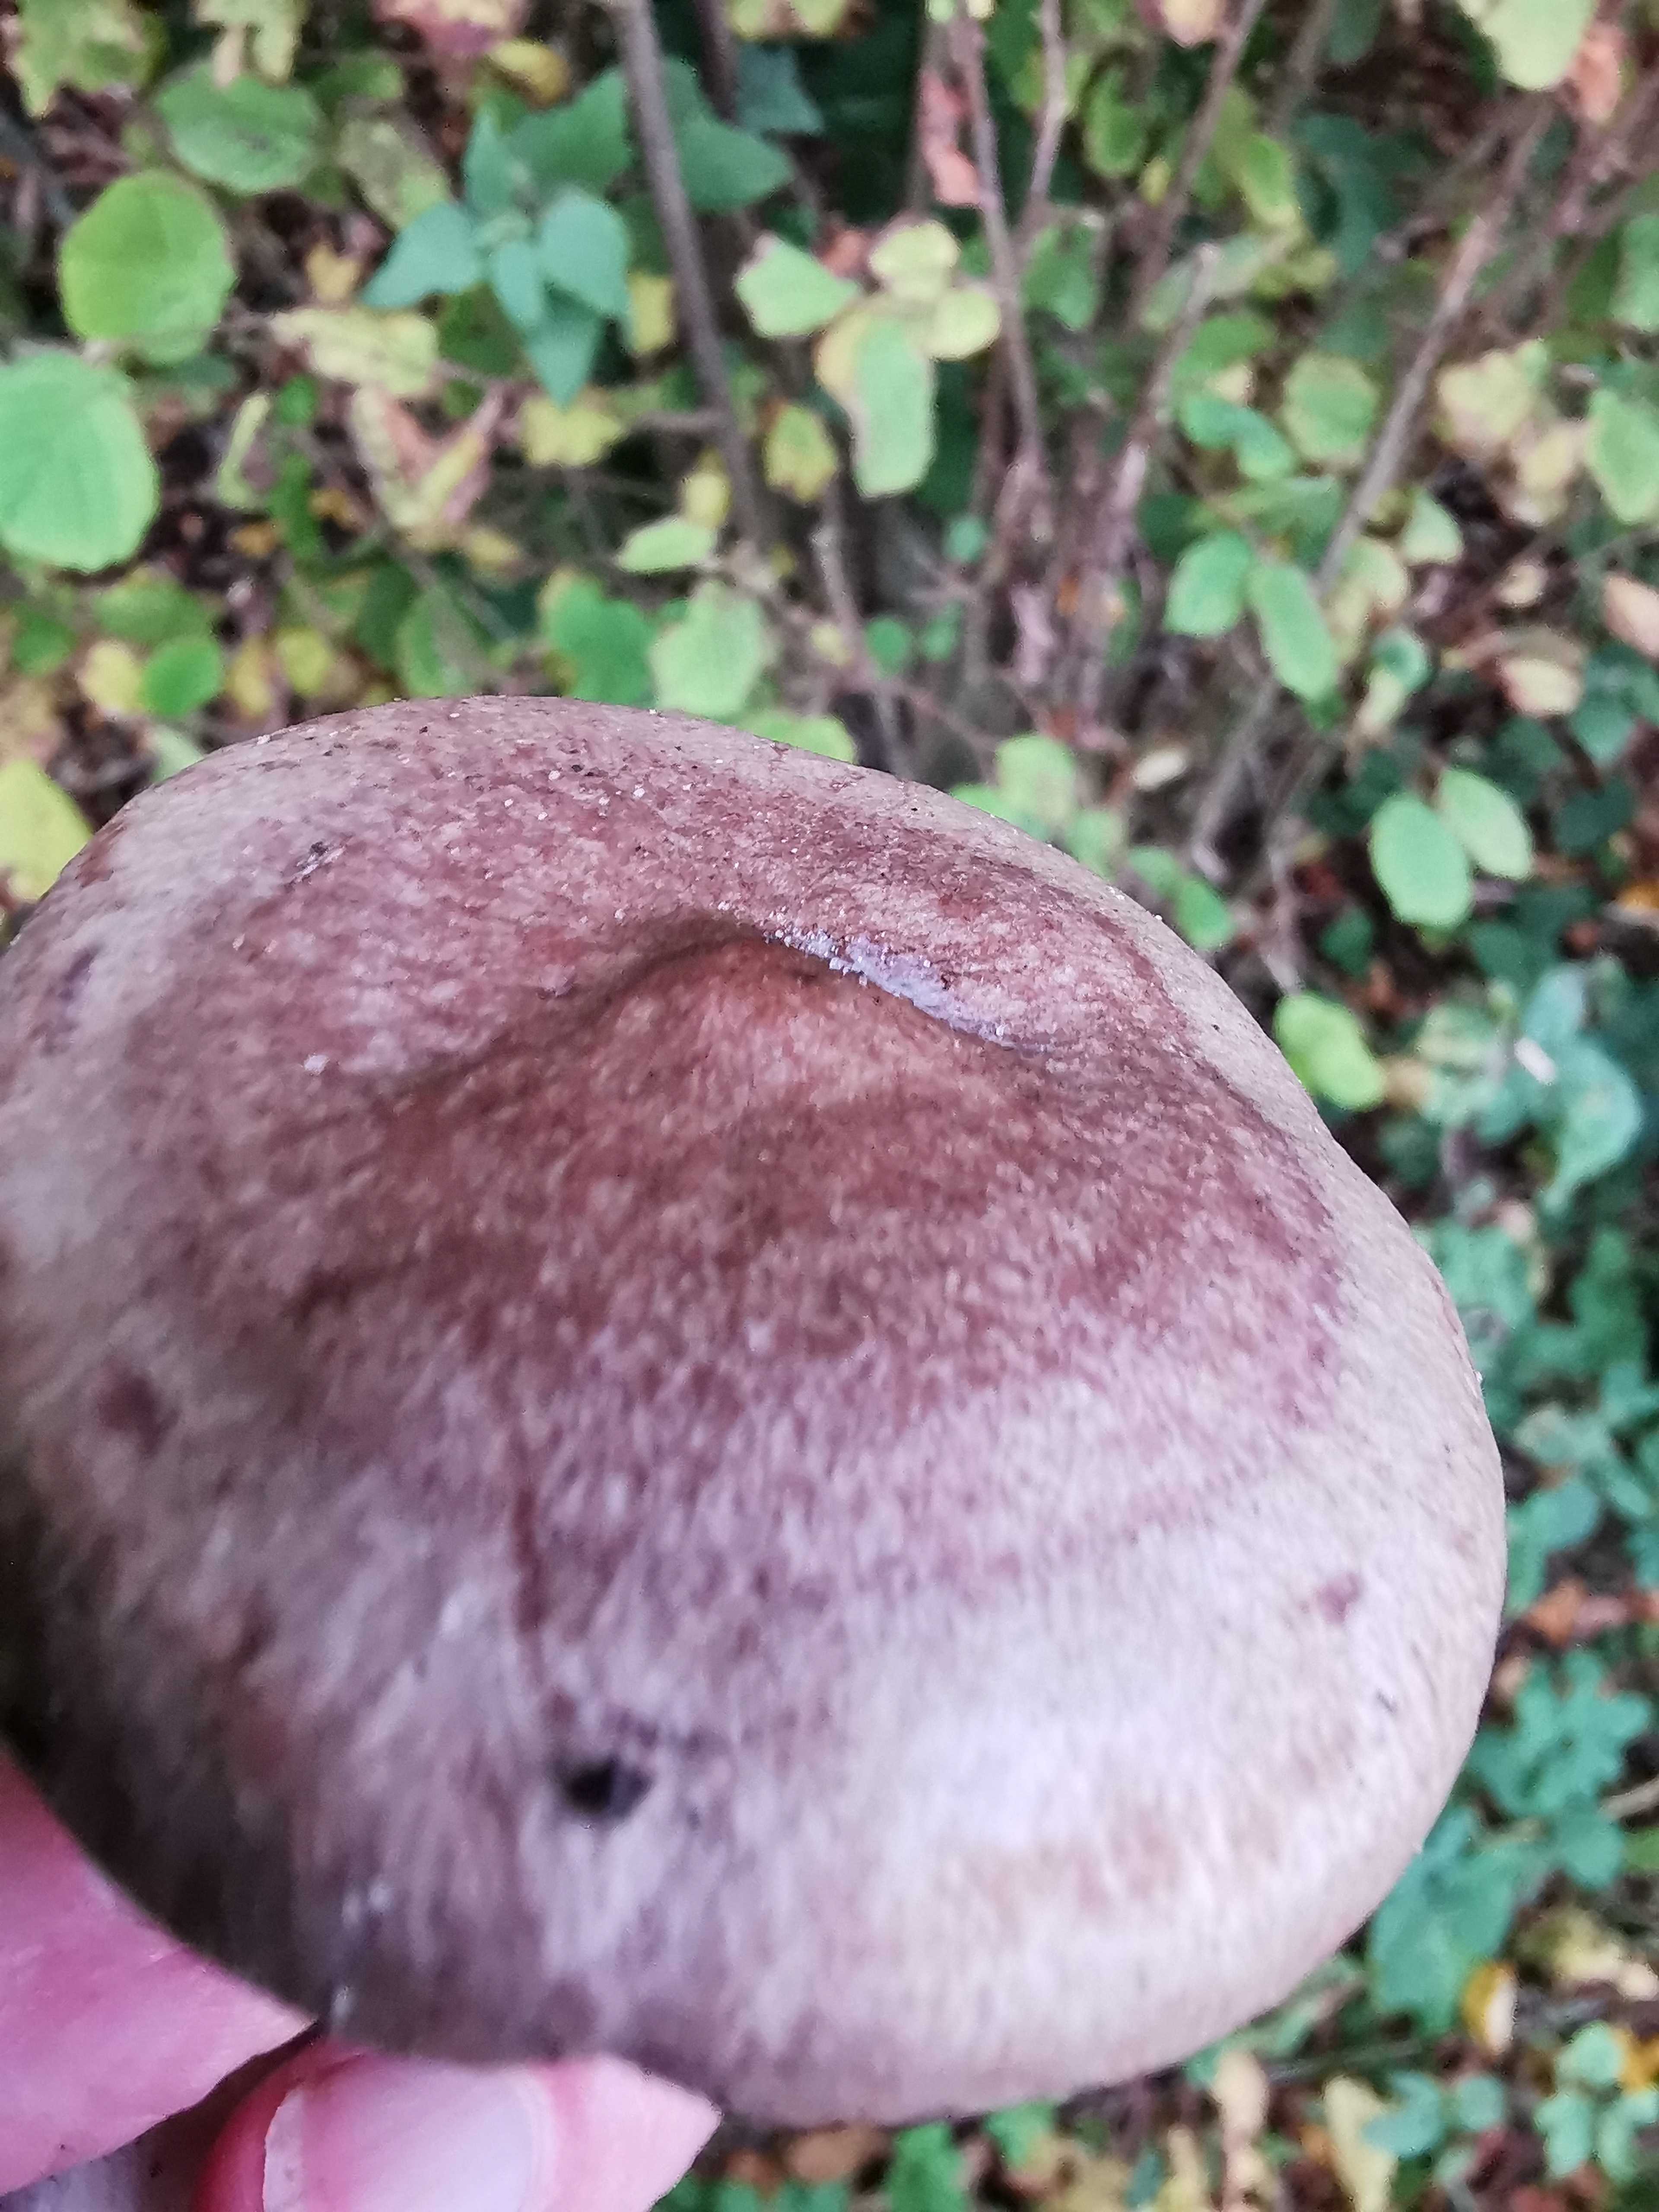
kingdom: Fungi
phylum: Basidiomycota
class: Agaricomycetes
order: Russulales
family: Russulaceae
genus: Lactarius
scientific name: Lactarius pyrogalus
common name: hassel-mælkehat
